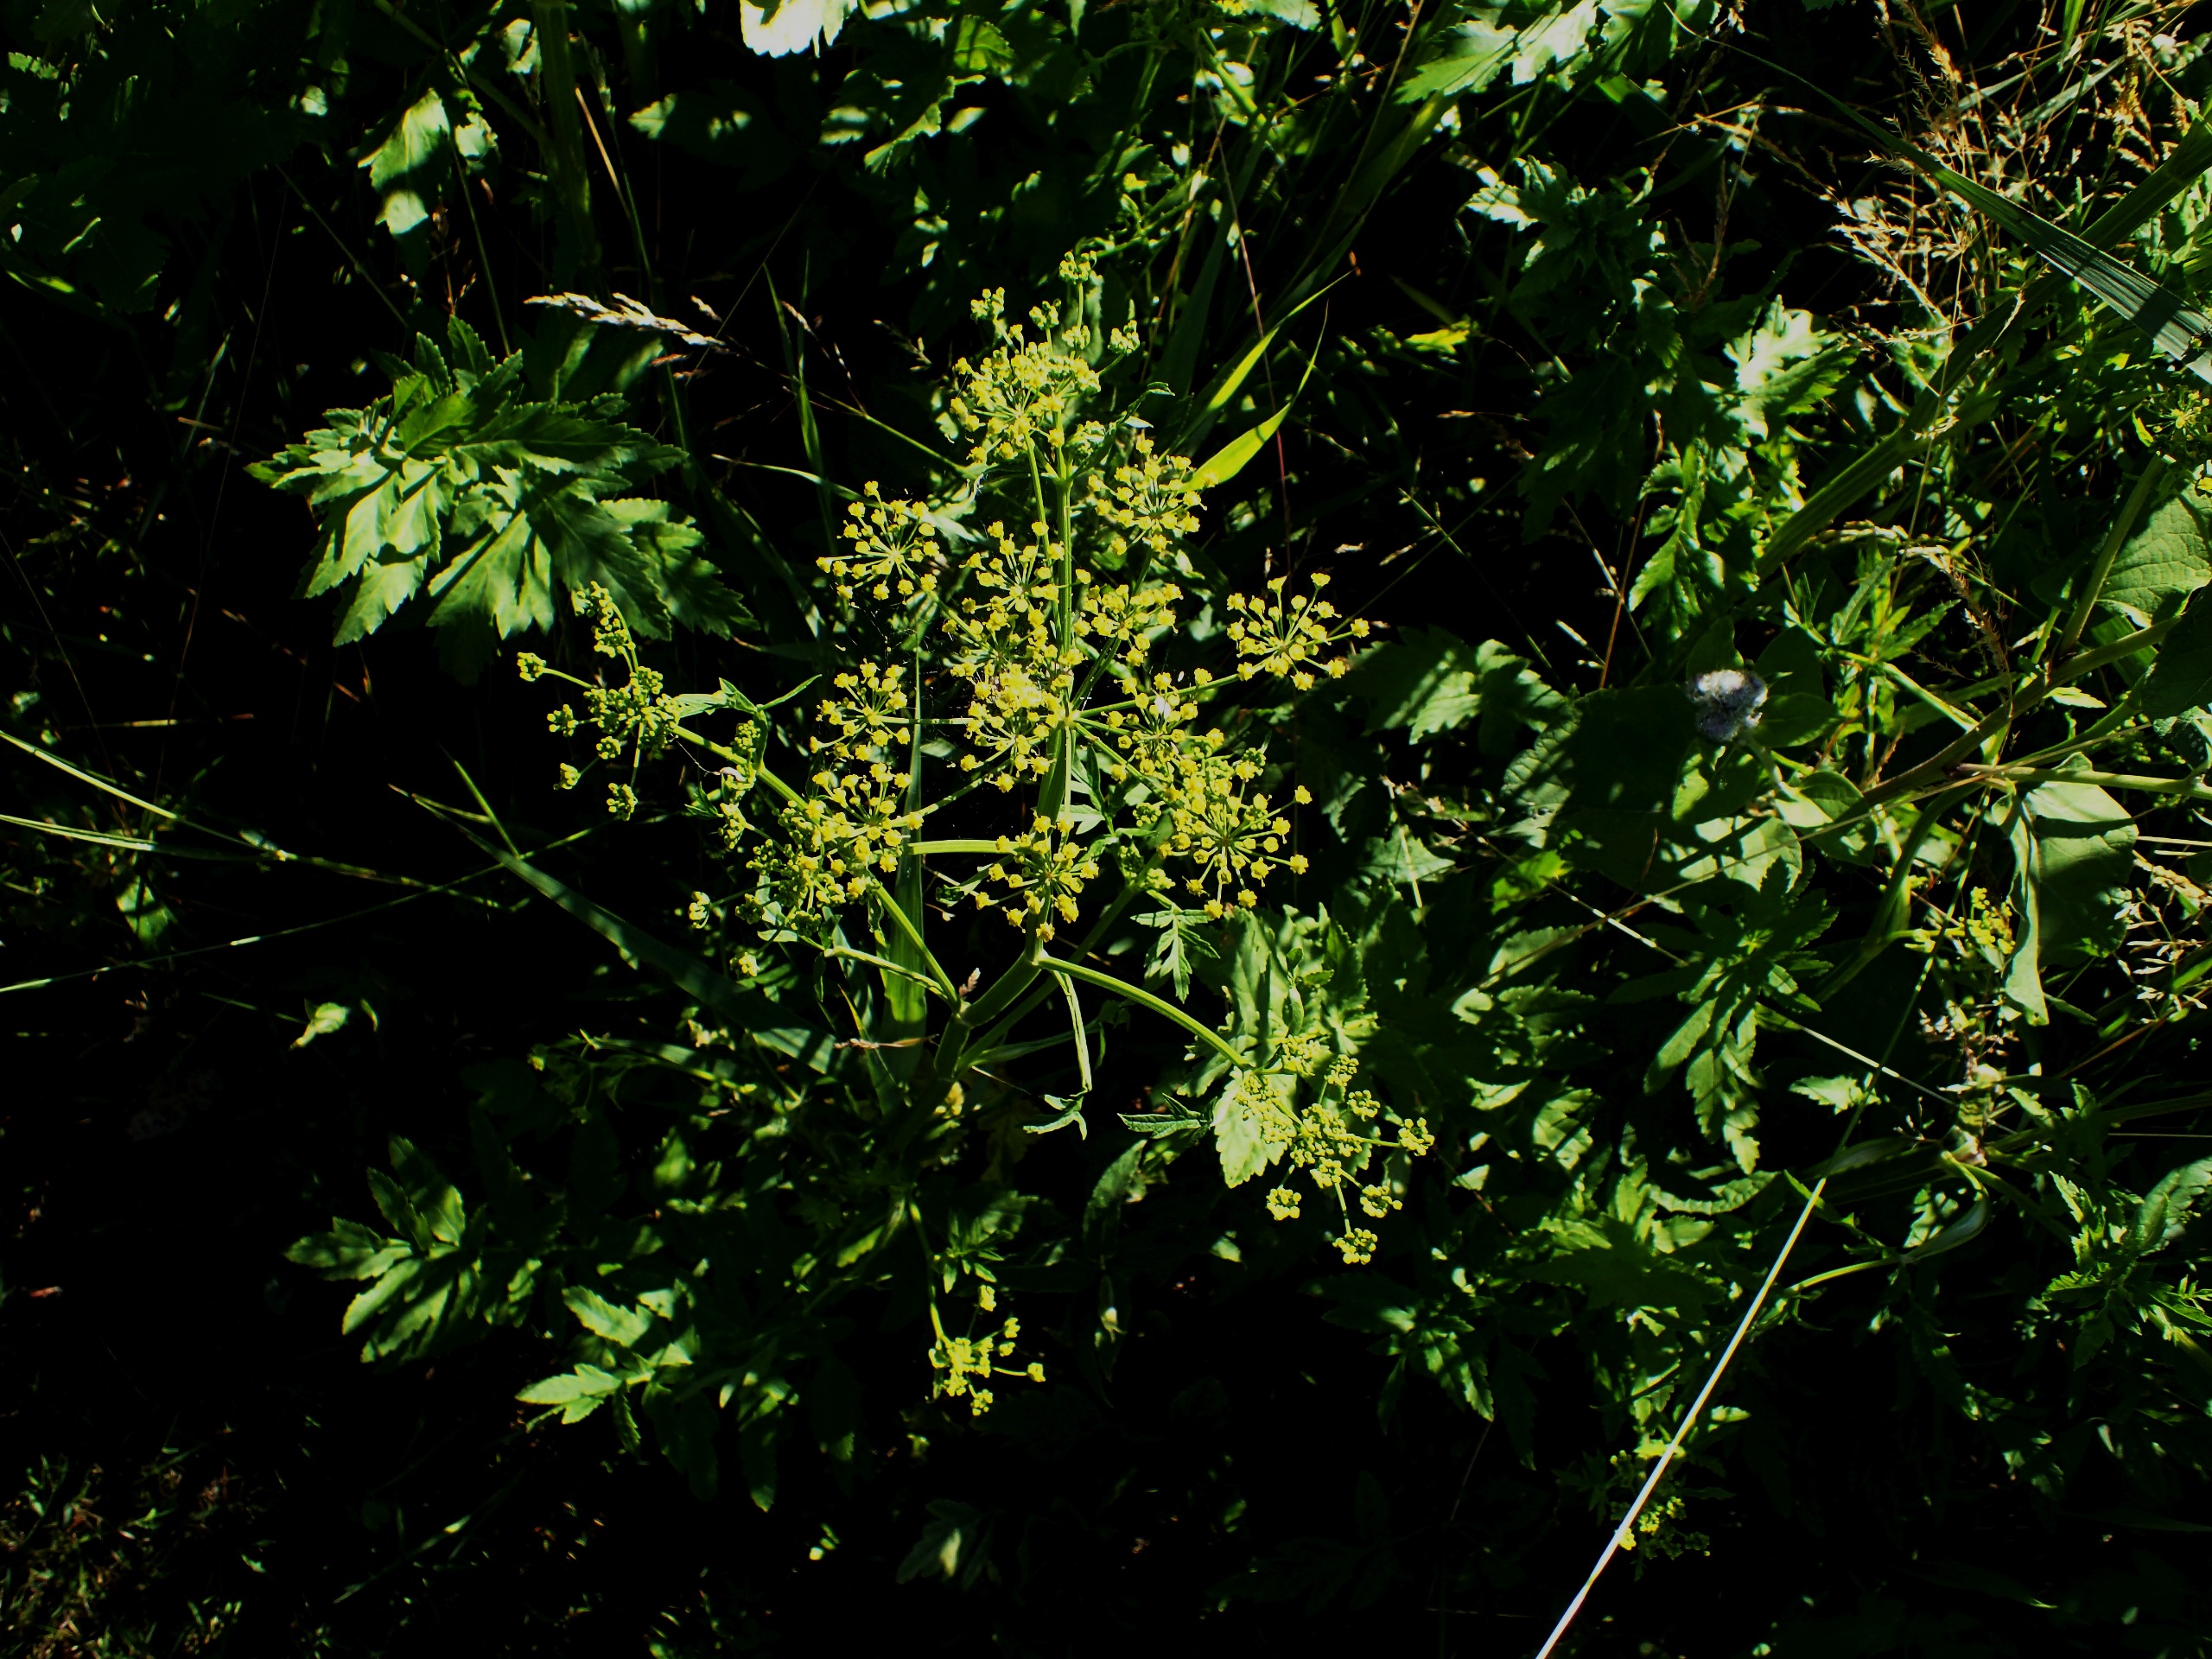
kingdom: Plantae
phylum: Tracheophyta
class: Magnoliopsida
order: Apiales
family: Apiaceae
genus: Pastinaca
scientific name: Pastinaca sativa
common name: Pastinak
